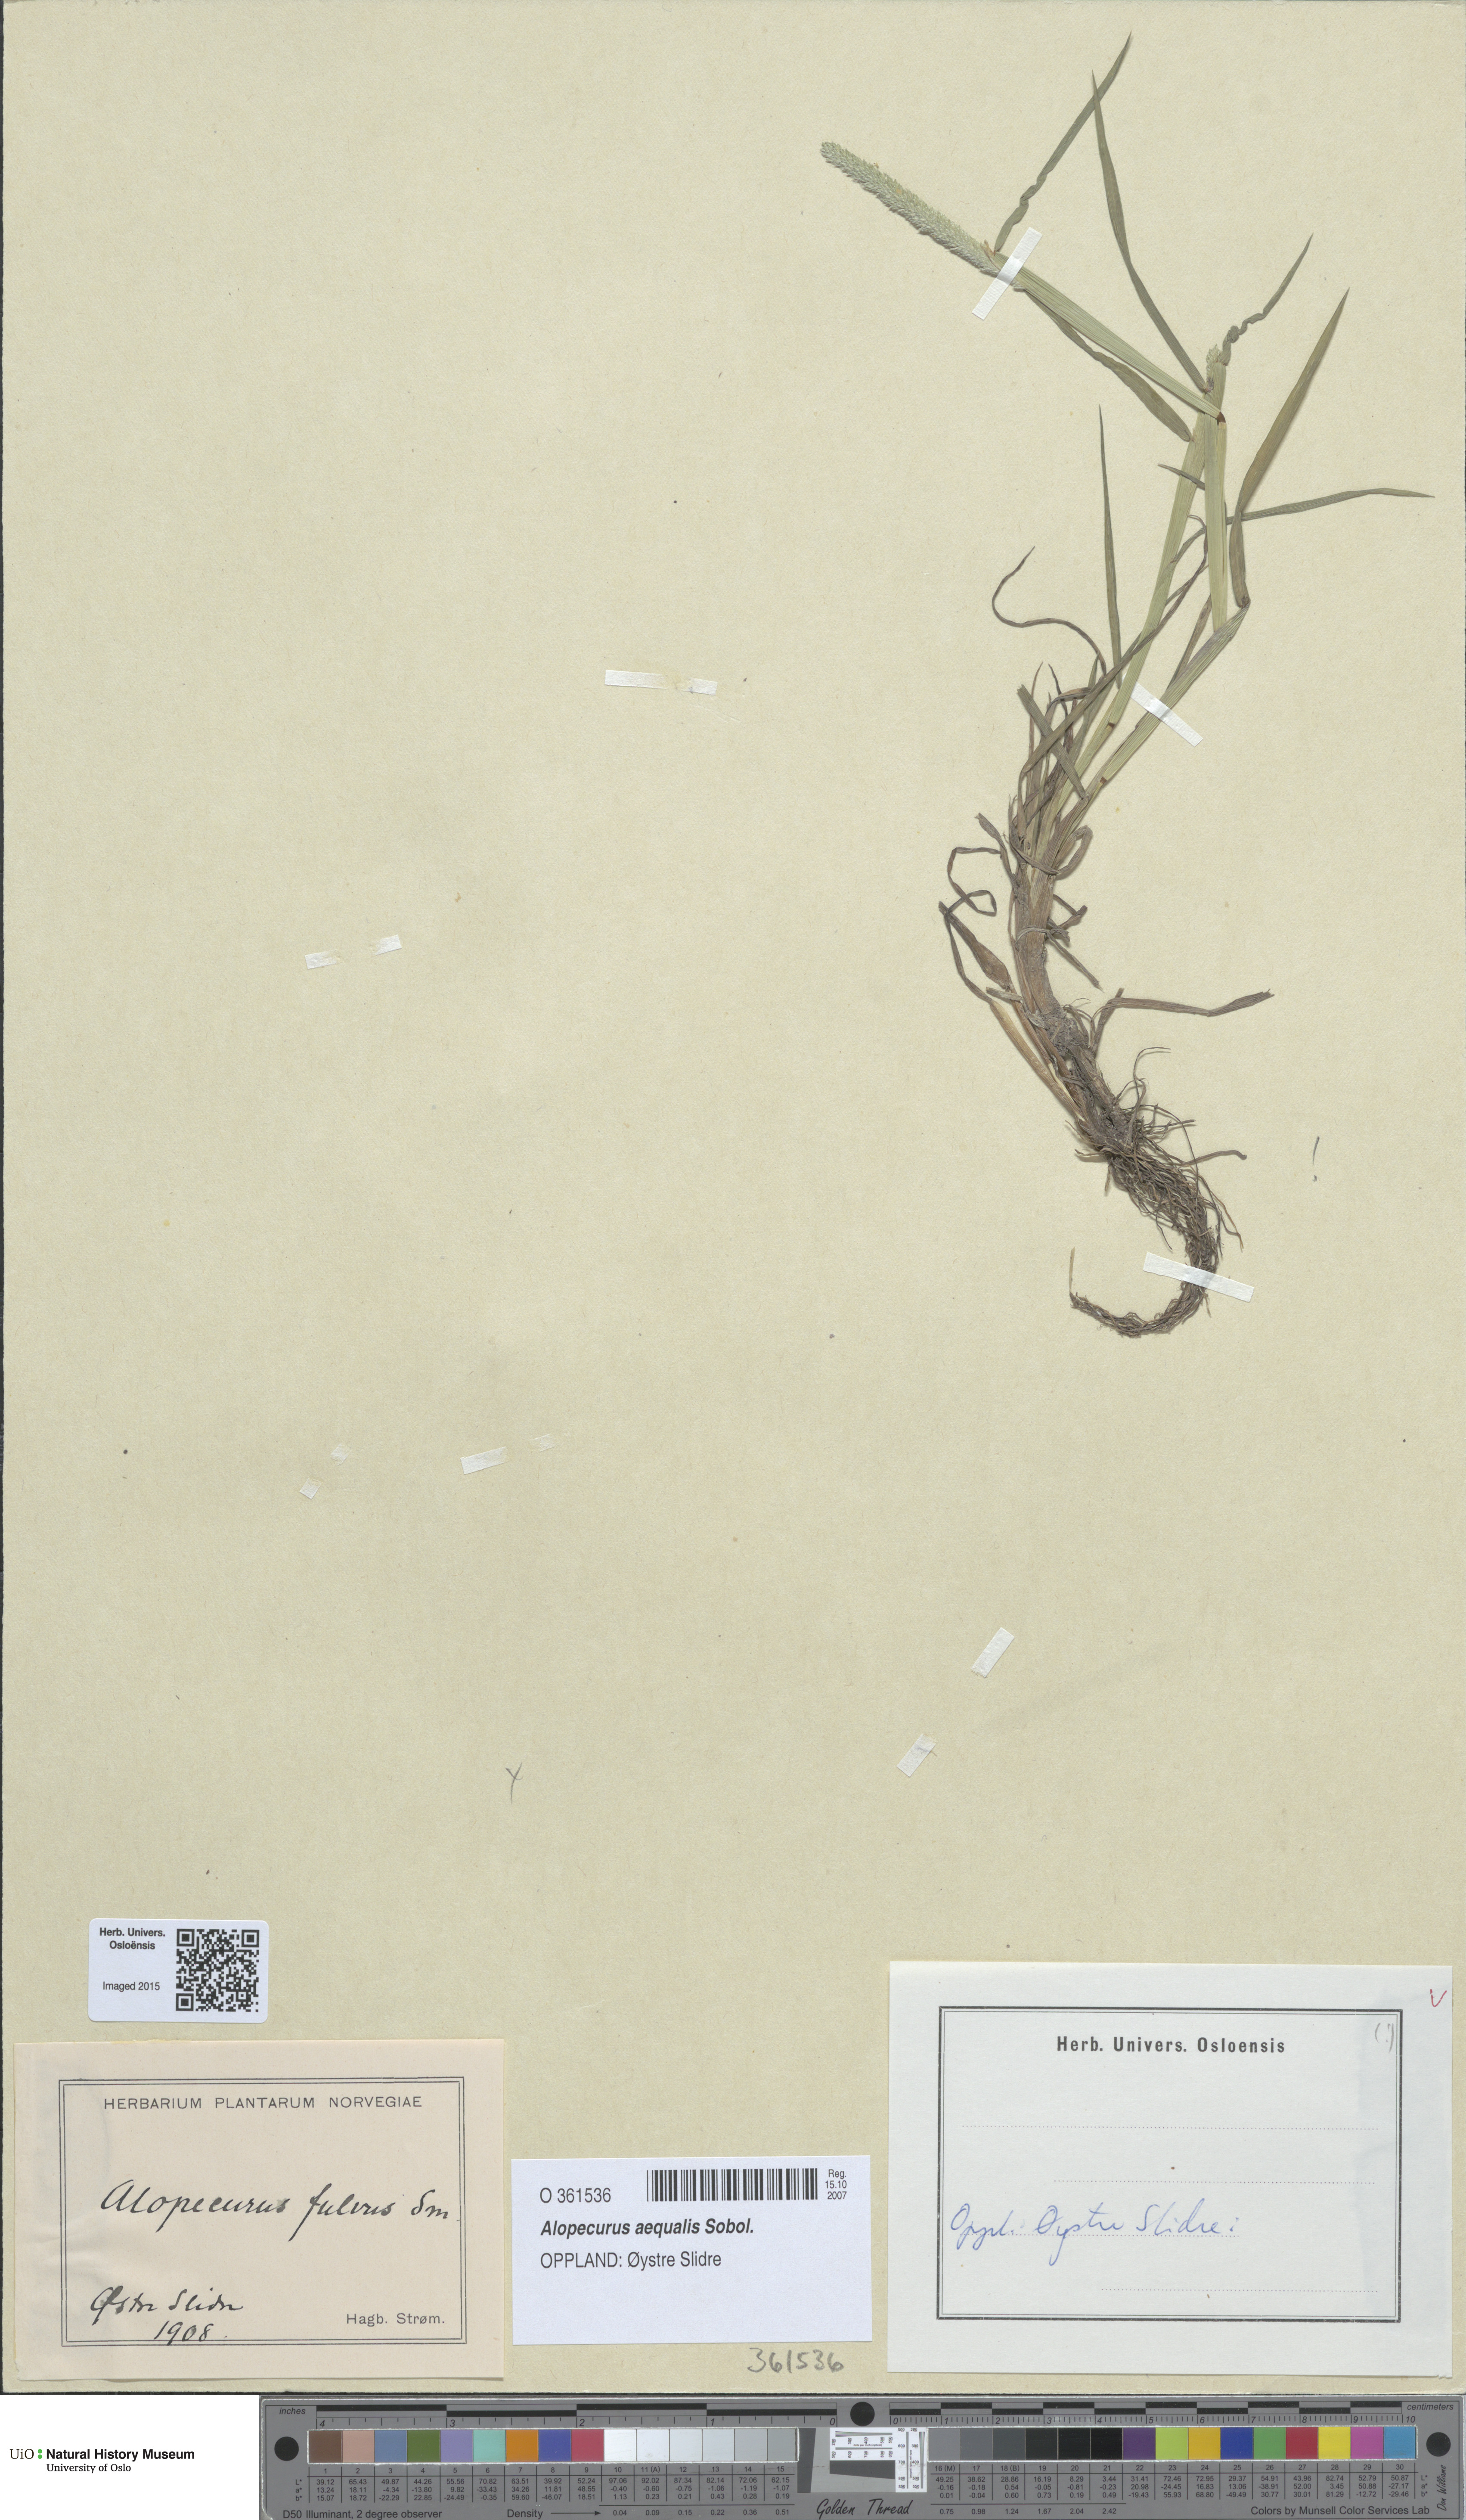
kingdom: Plantae
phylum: Tracheophyta
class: Liliopsida
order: Poales
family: Poaceae
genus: Alopecurus
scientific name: Alopecurus aequalis
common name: Orange foxtail
